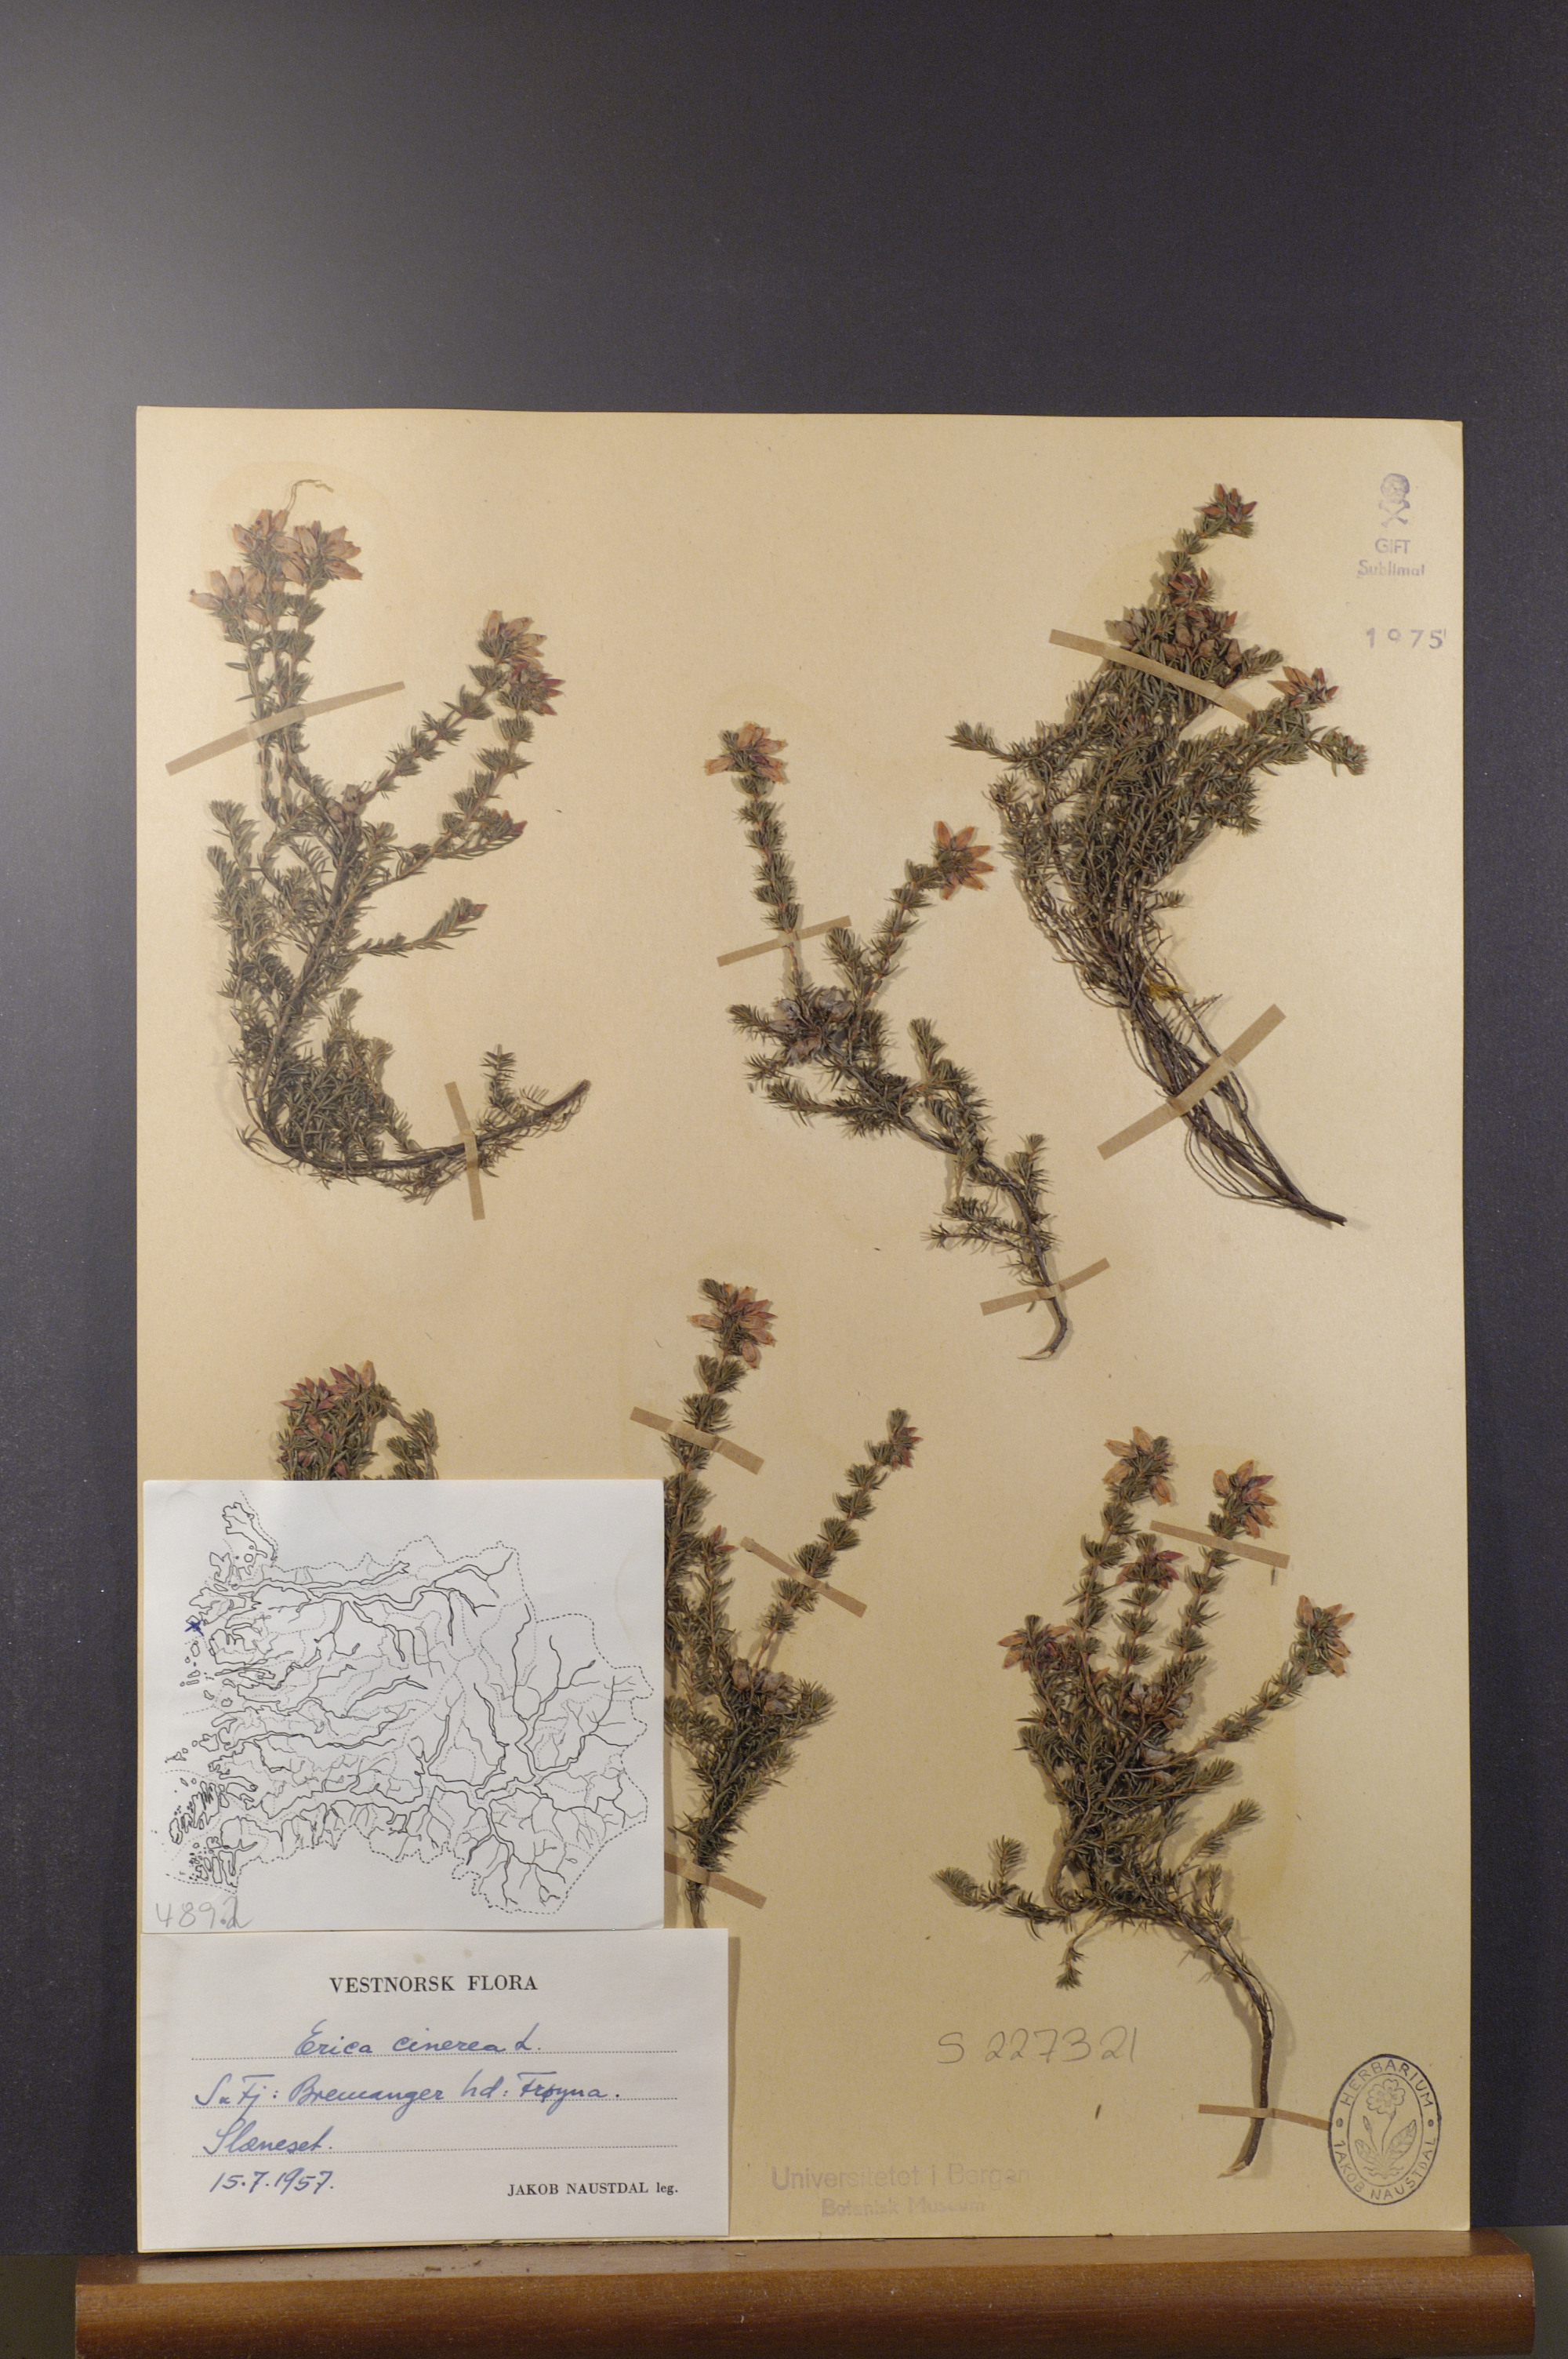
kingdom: Plantae
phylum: Tracheophyta
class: Magnoliopsida
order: Ericales
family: Ericaceae
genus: Erica
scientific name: Erica cinerea
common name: Bell heather
